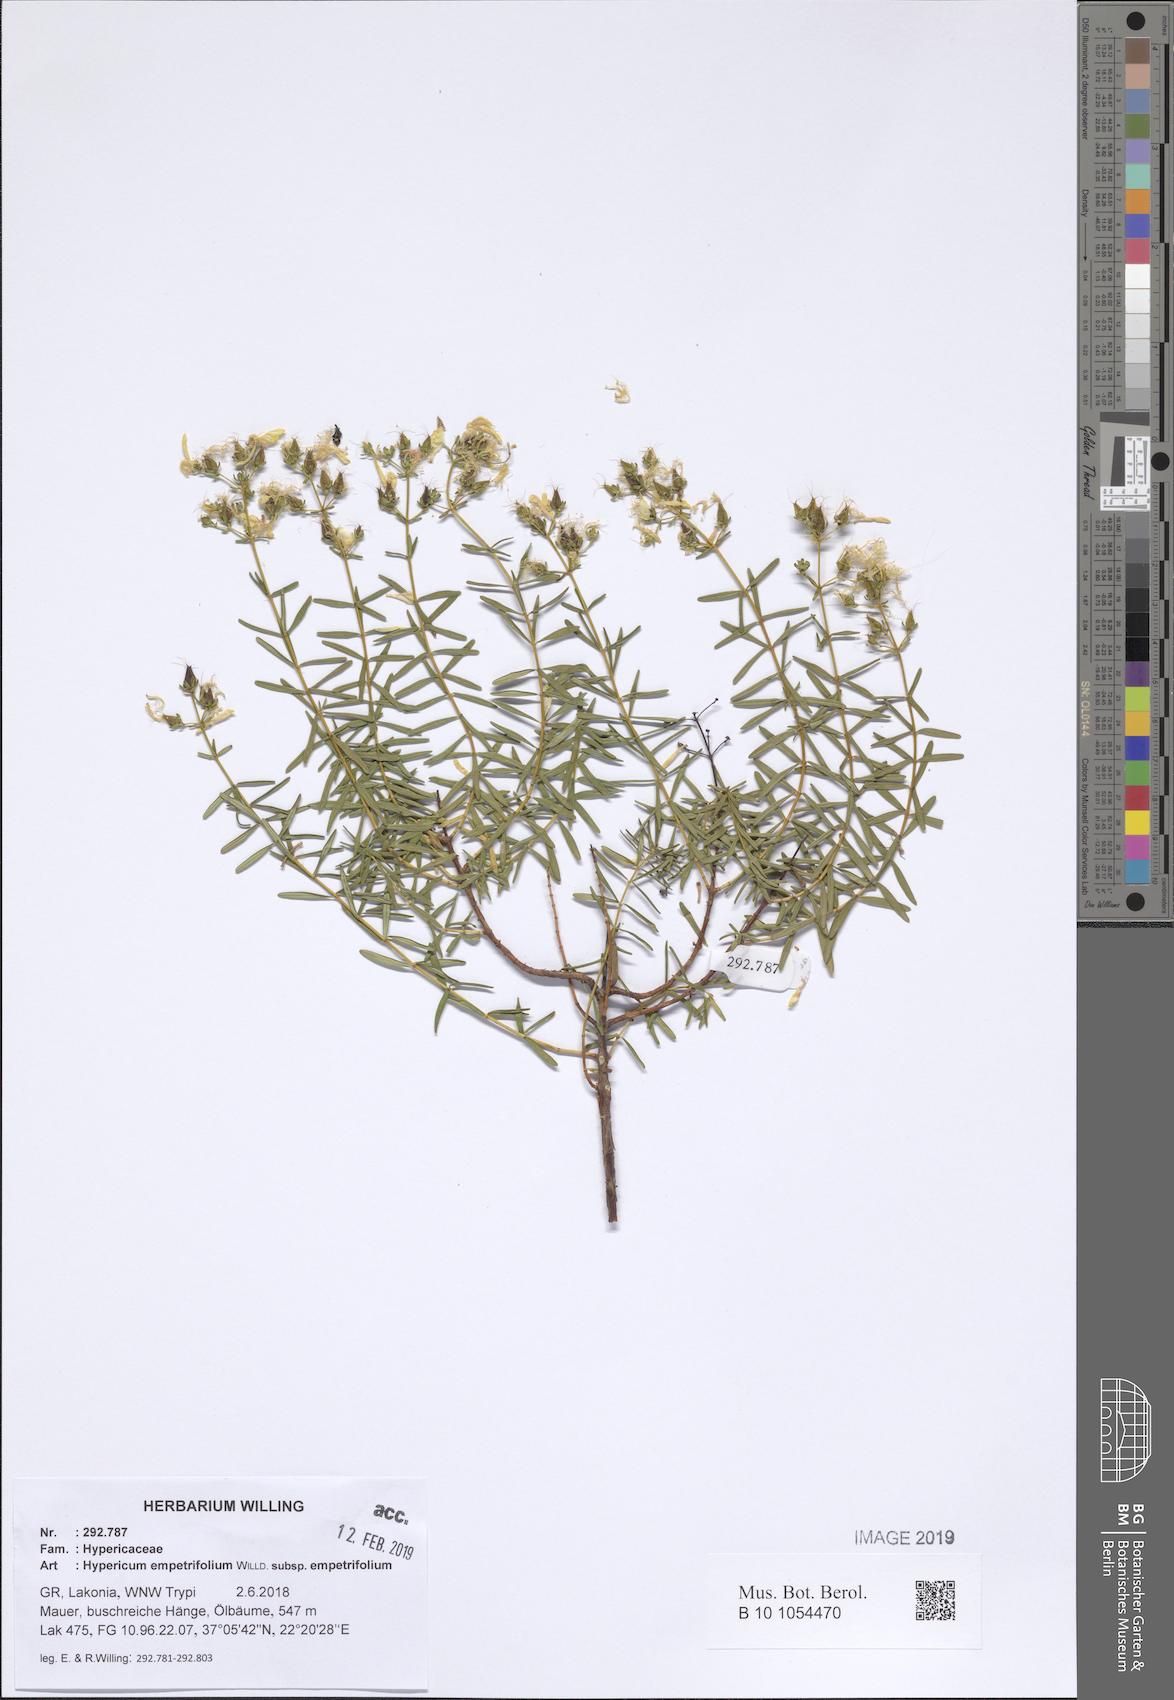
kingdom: Plantae
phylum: Tracheophyta
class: Magnoliopsida
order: Malpighiales
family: Hypericaceae
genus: Hypericum
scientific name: Hypericum empetrifolium
